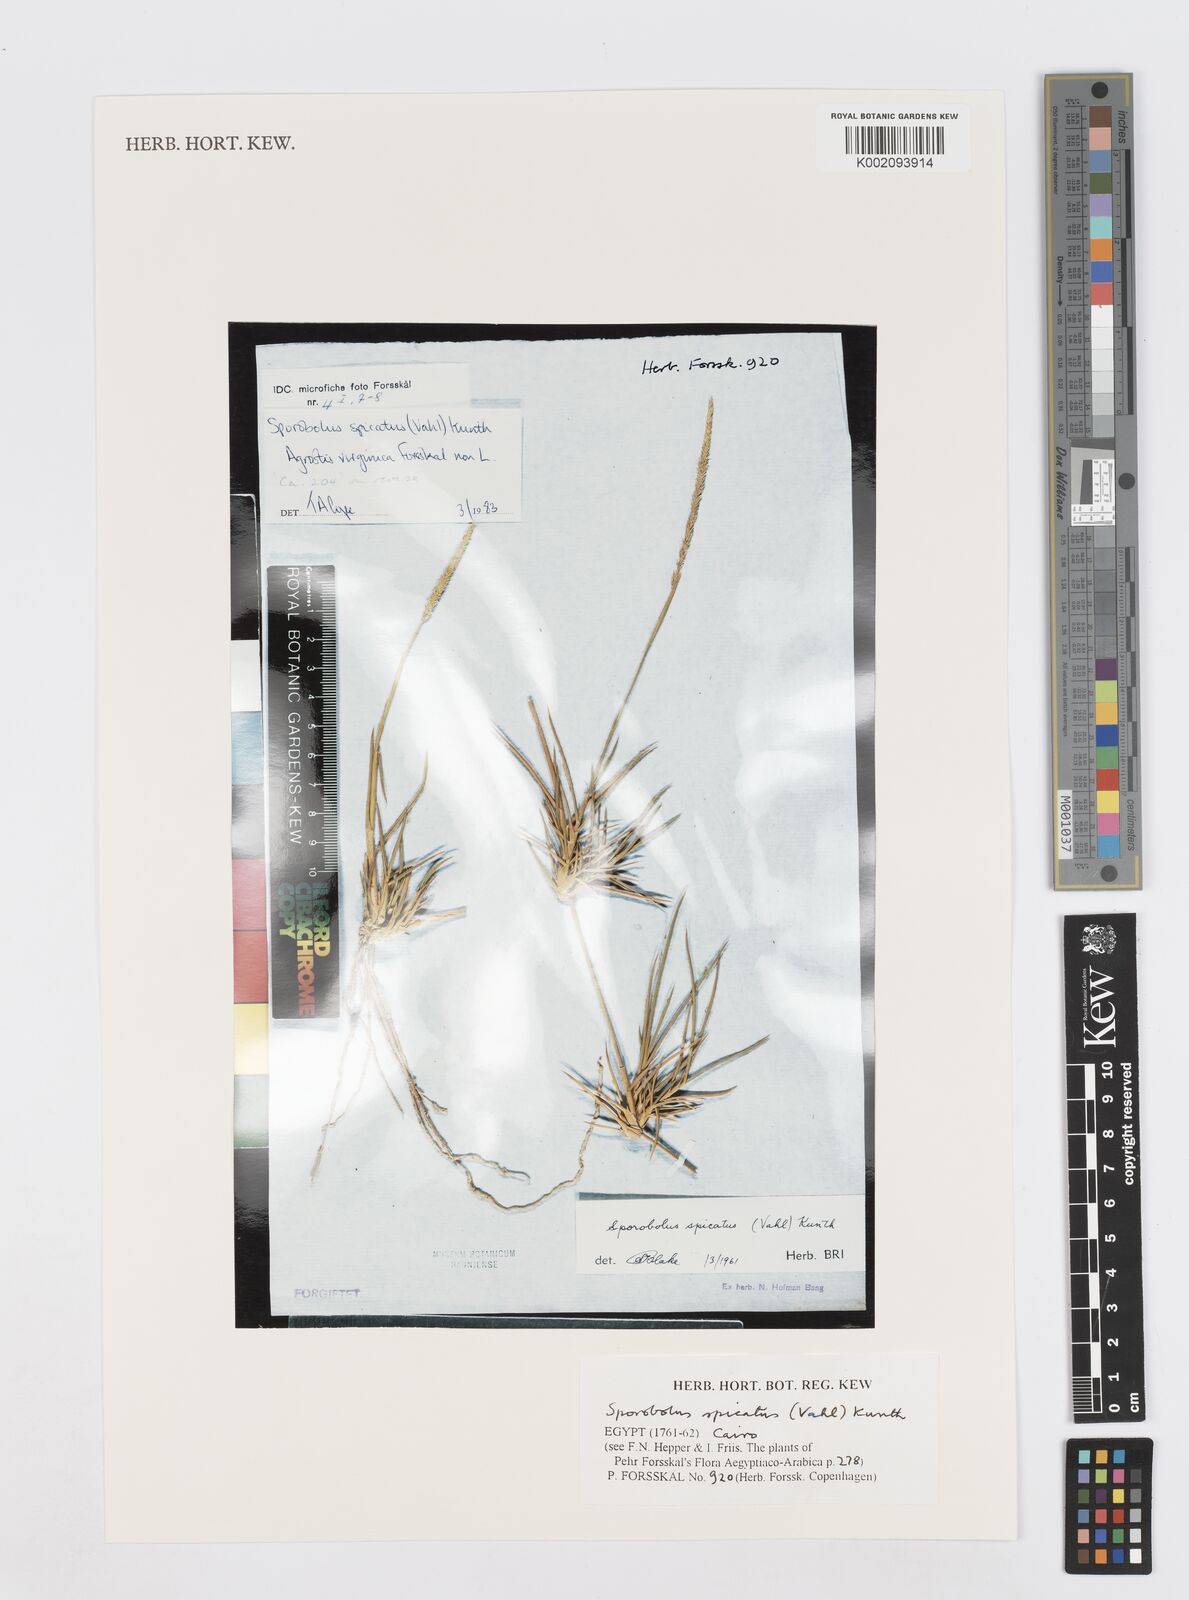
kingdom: Plantae
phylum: Tracheophyta
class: Liliopsida
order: Poales
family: Poaceae
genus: Sporobolus
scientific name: Sporobolus spicatus
